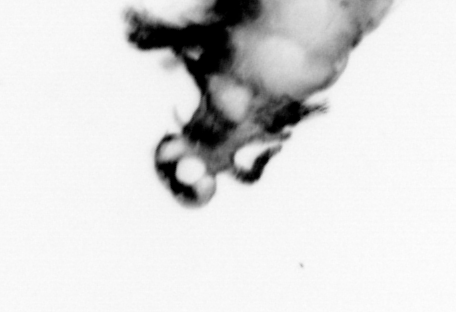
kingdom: Animalia
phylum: Annelida
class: Polychaeta
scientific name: Polychaeta
